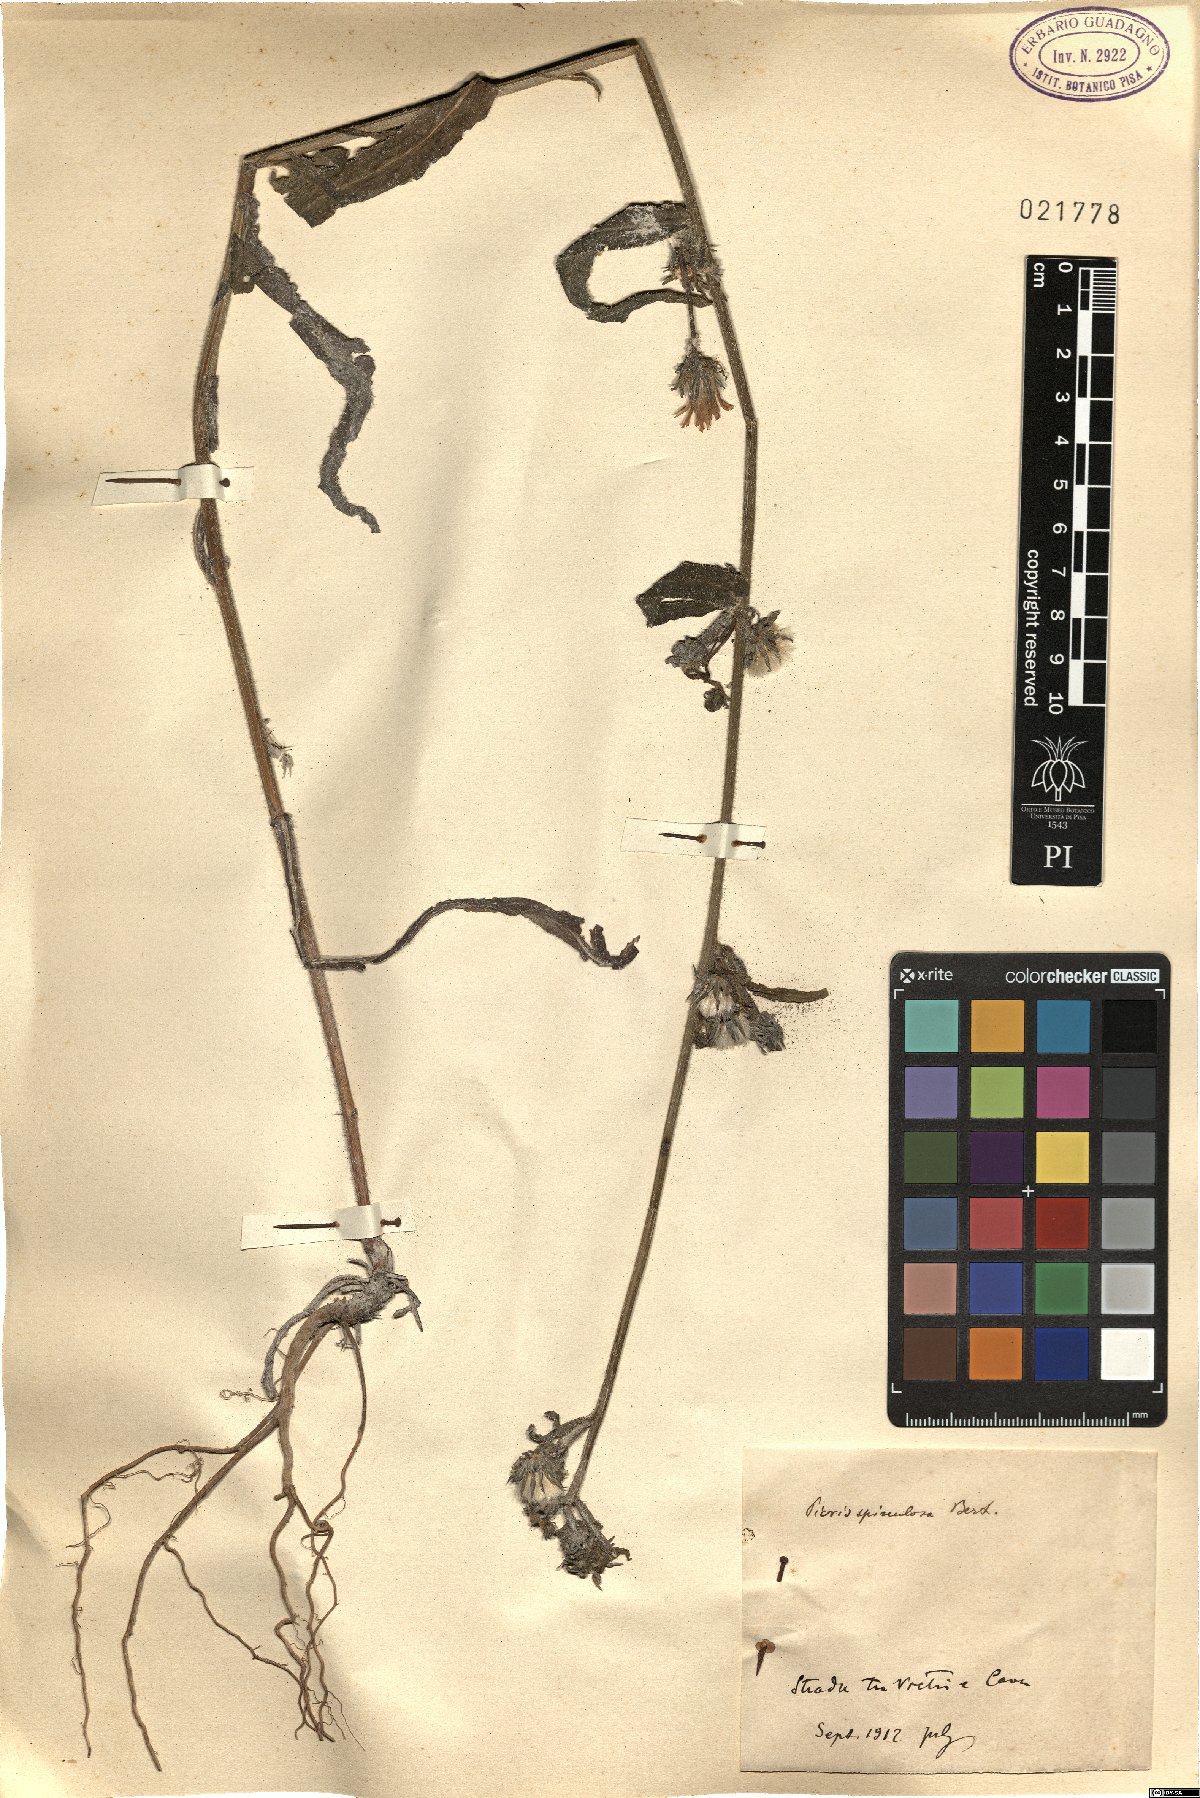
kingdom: Plantae
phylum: Tracheophyta
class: Magnoliopsida
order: Asterales
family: Asteraceae
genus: Picris
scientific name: Picris hieracioides
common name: Hawkweed oxtongue
